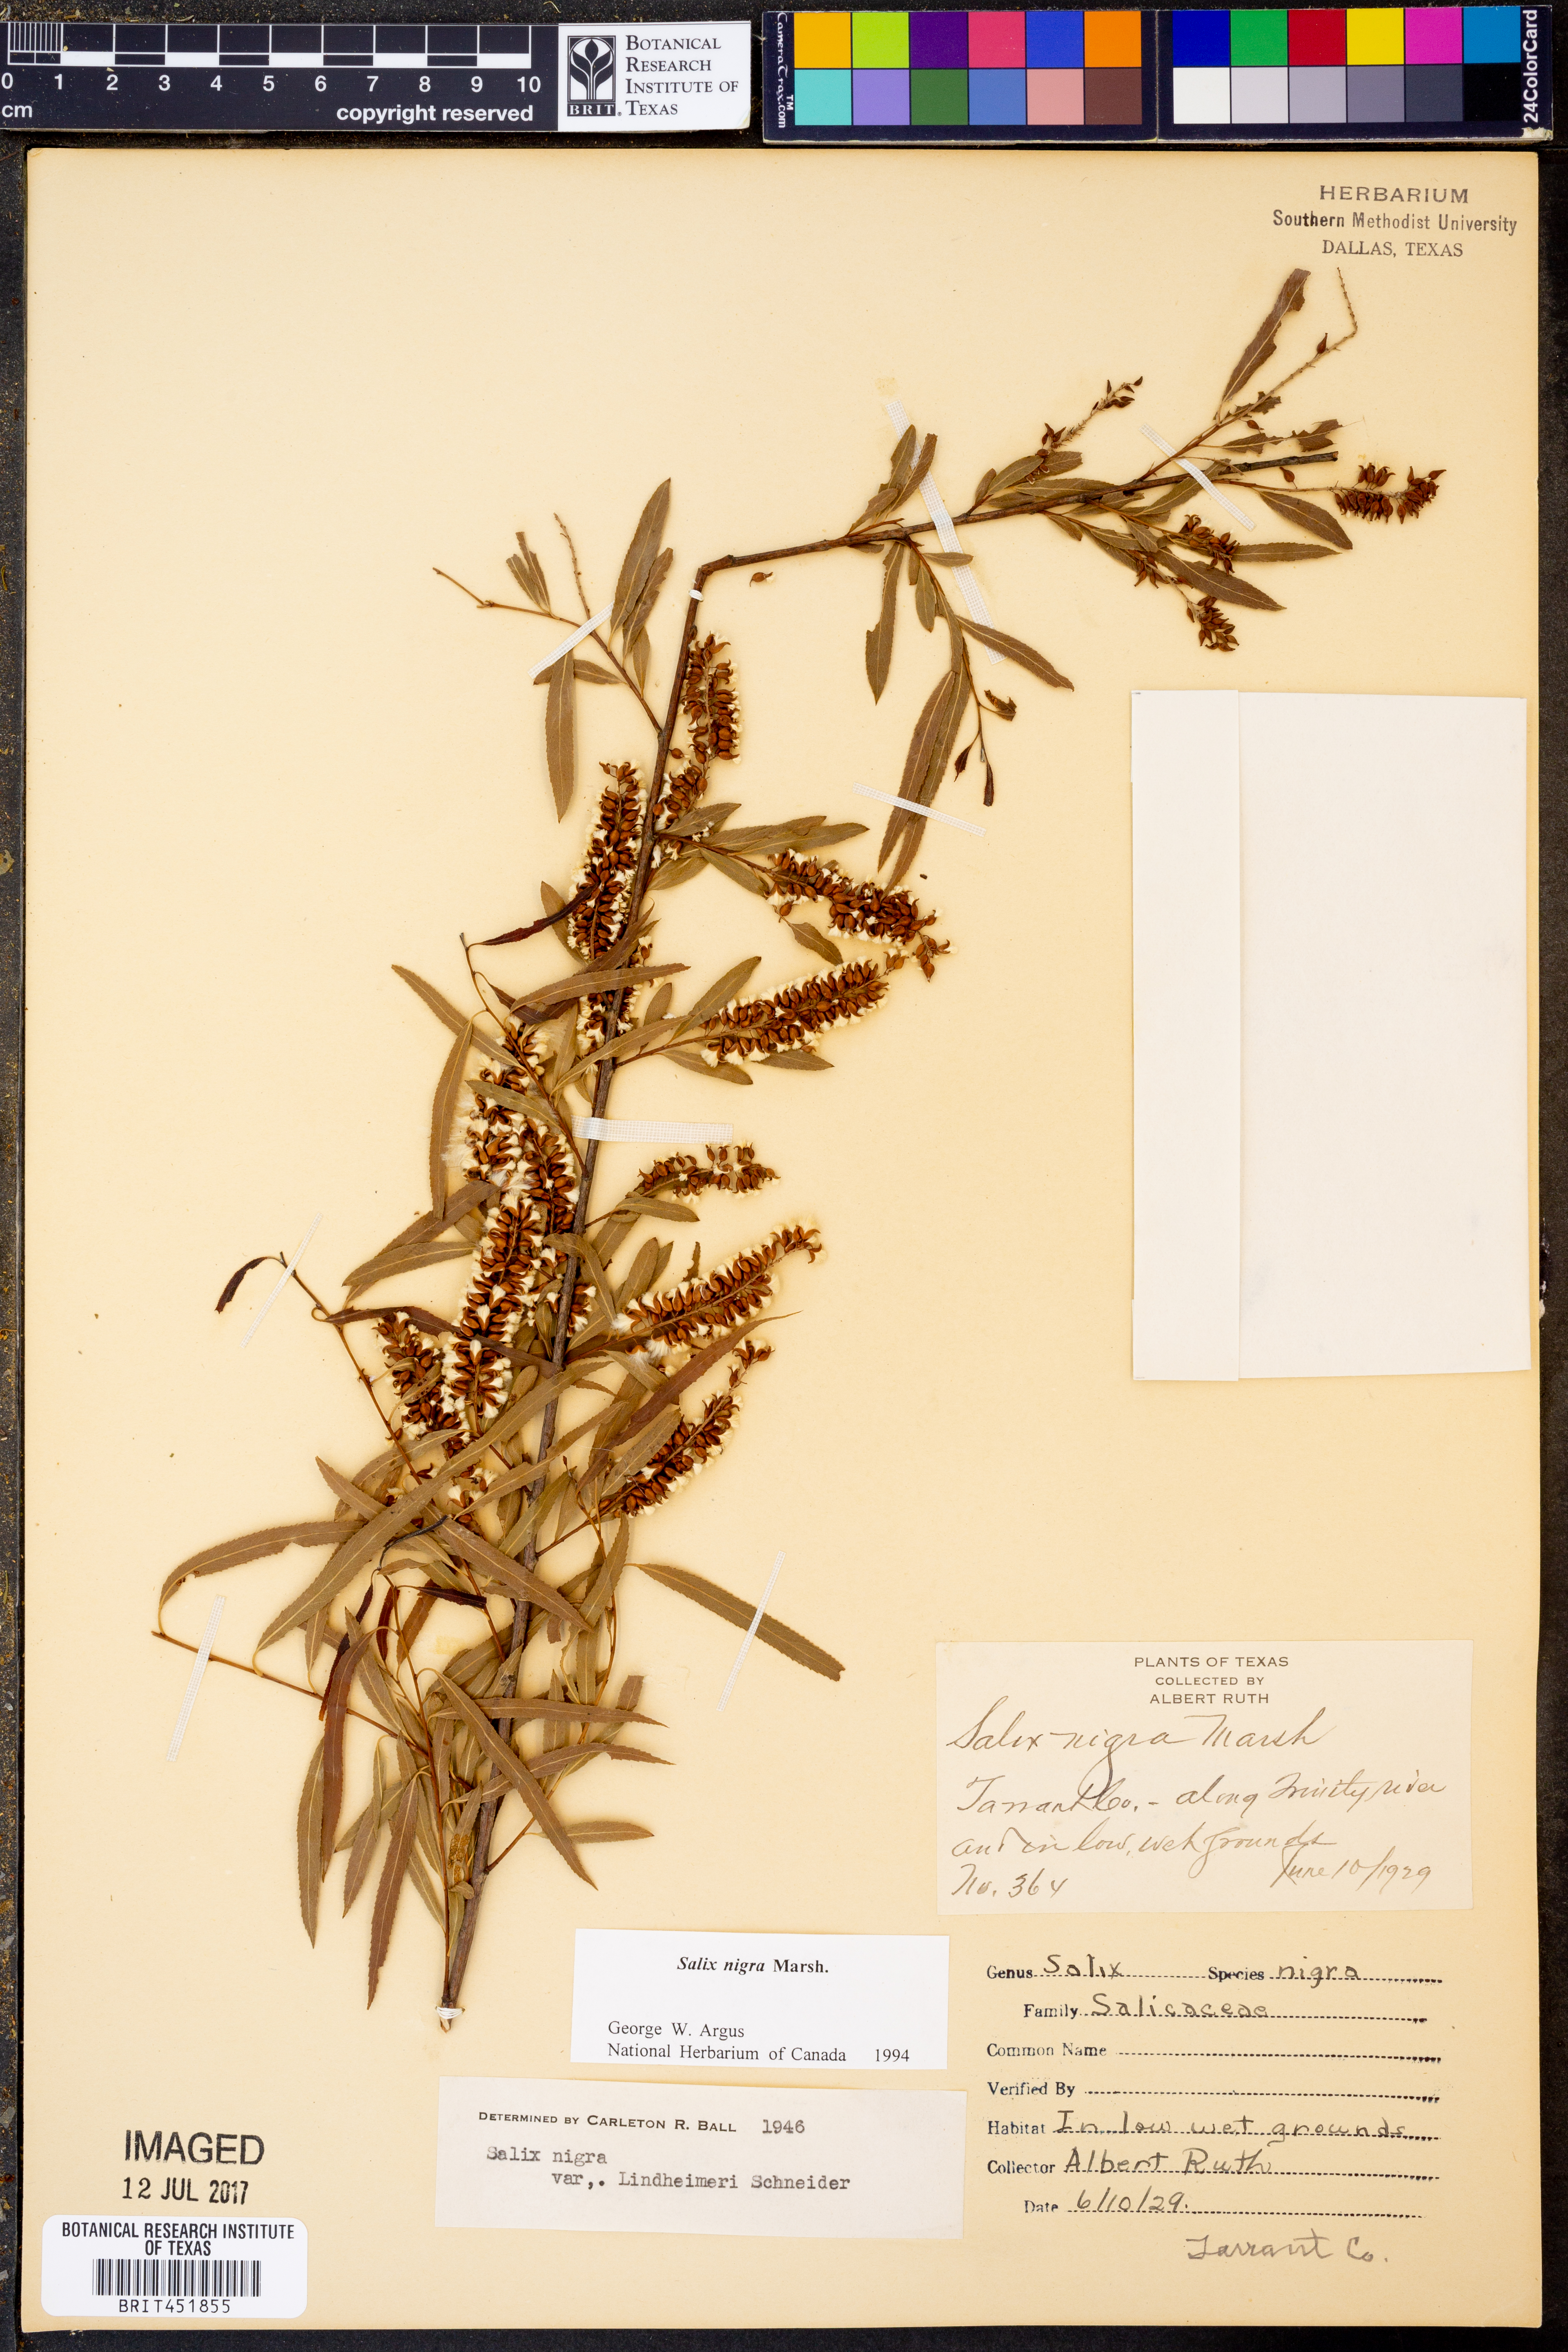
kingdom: Plantae
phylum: Tracheophyta
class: Magnoliopsida
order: Malpighiales
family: Salicaceae
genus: Salix
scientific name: Salix nigra
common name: Black willow
